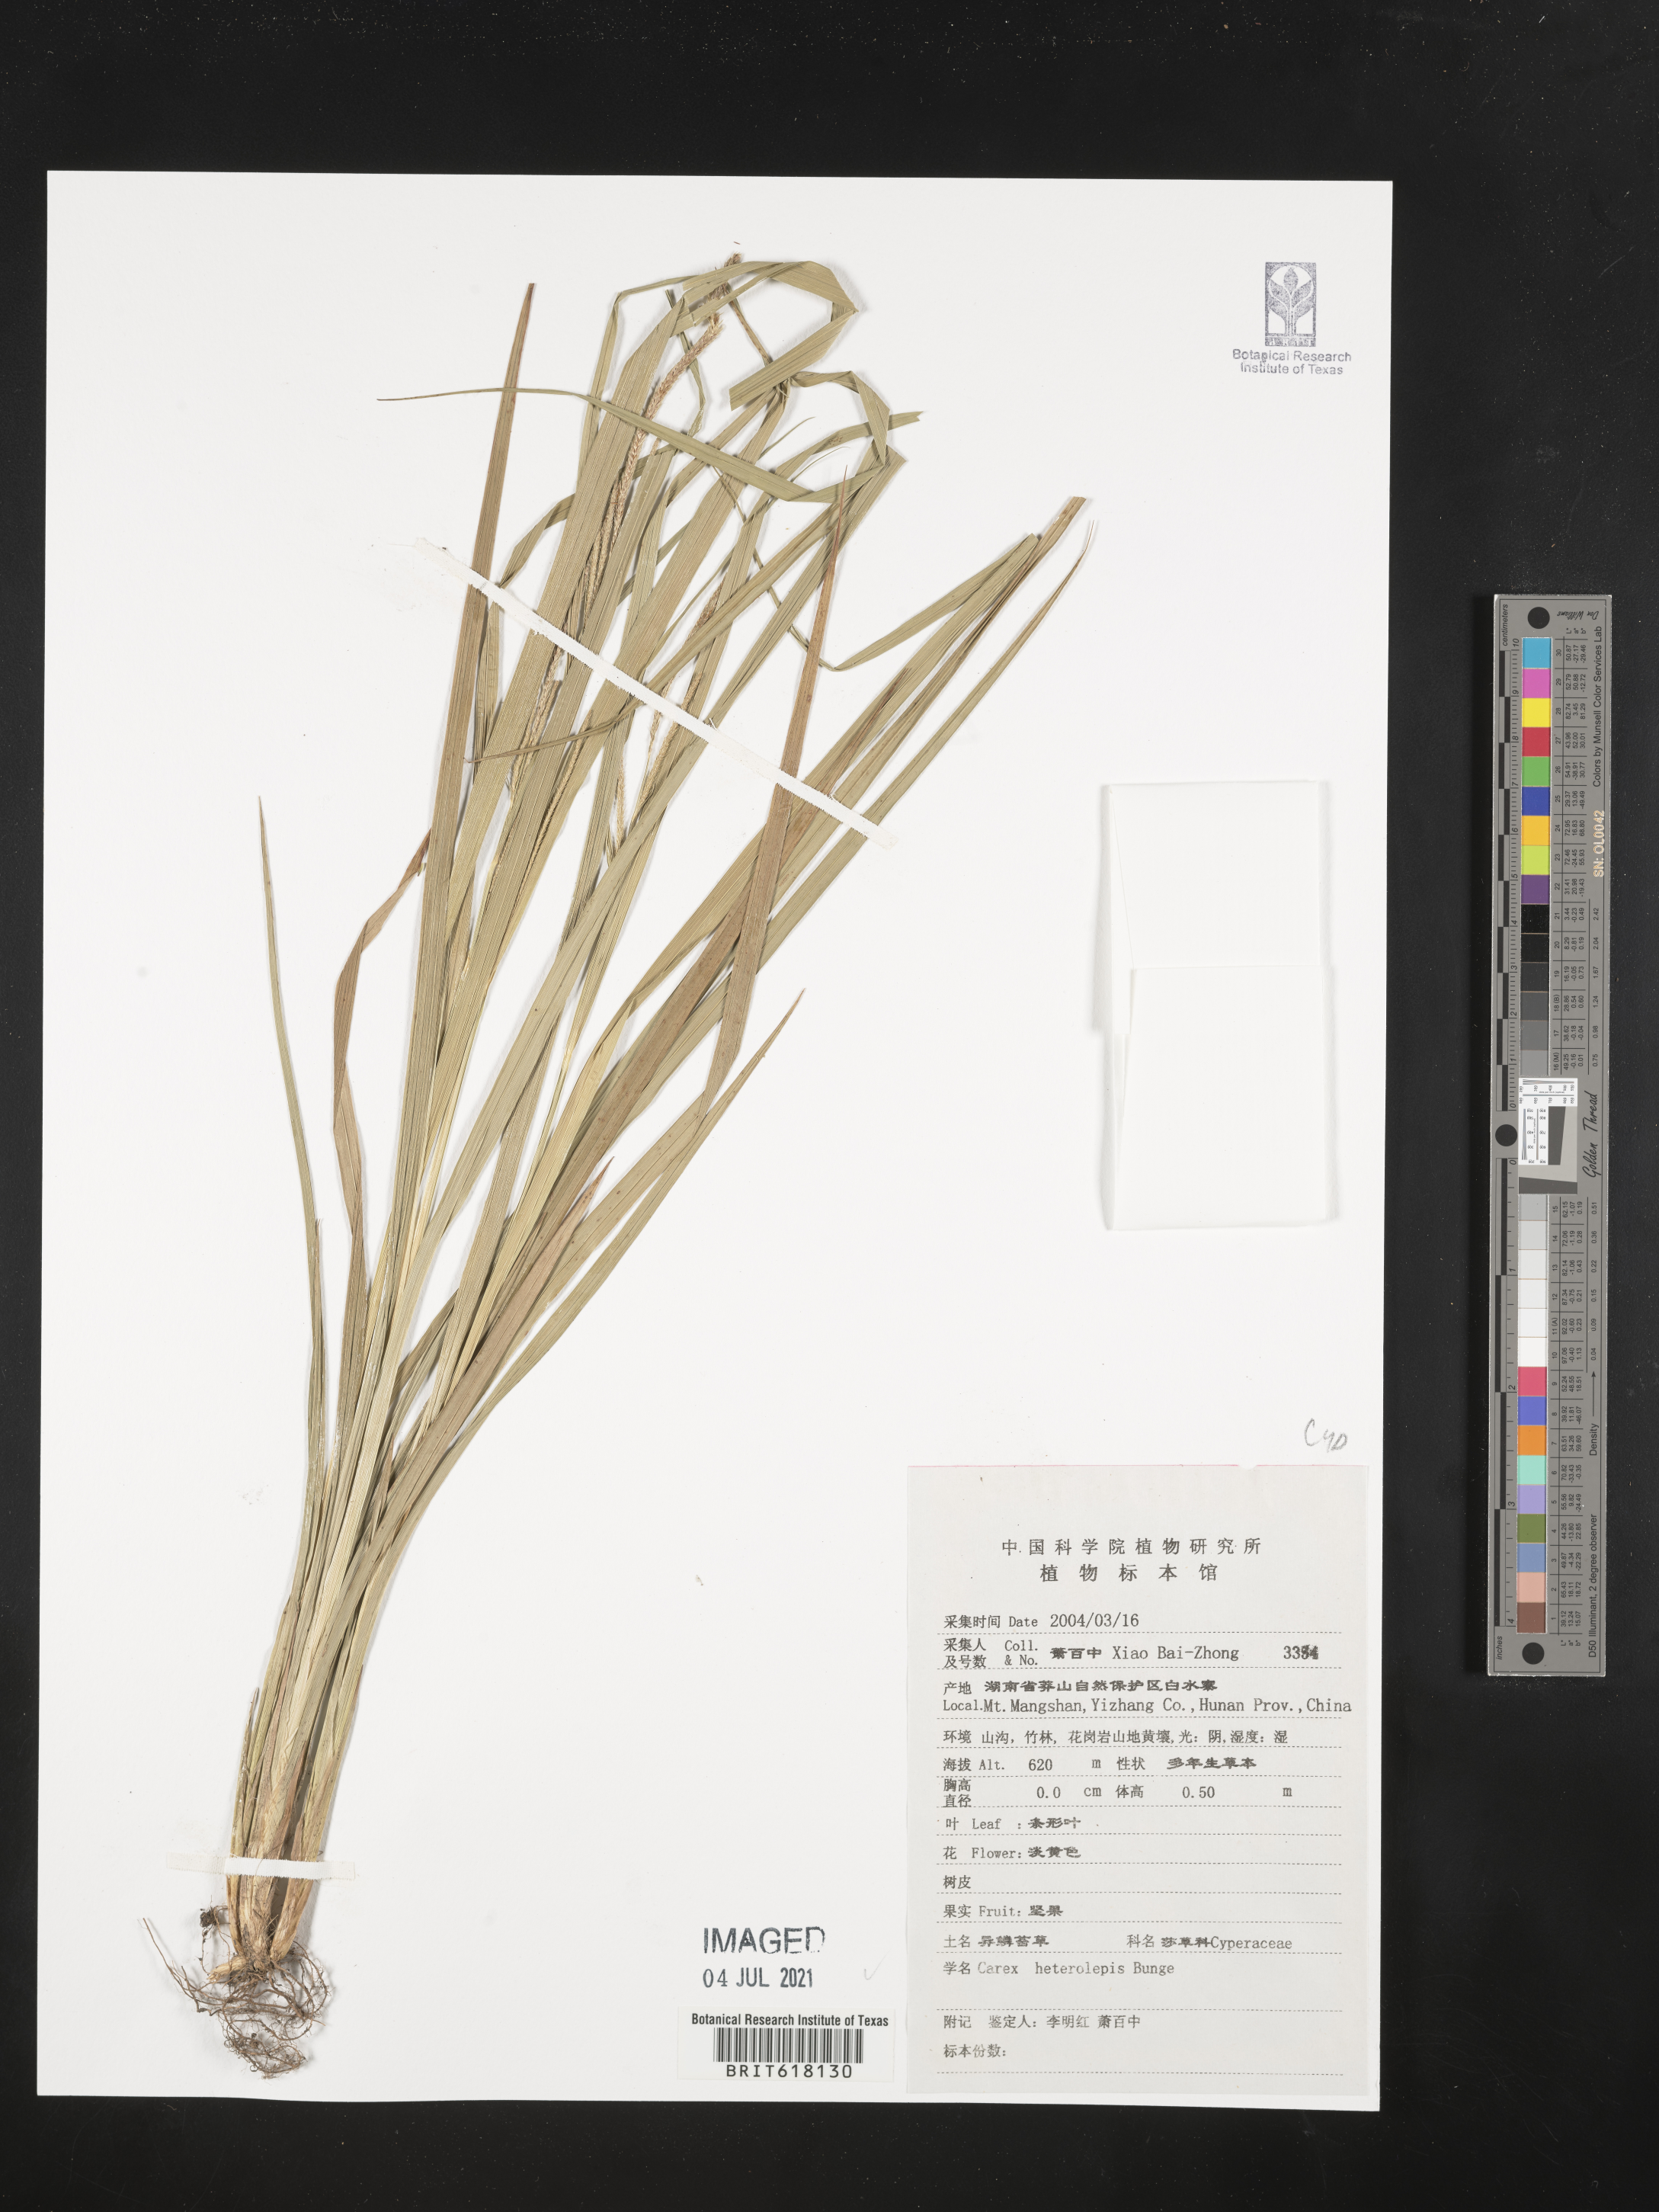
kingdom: Plantae
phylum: Tracheophyta
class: Liliopsida
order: Poales
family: Cyperaceae
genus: Carex
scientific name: Carex heterolepis
